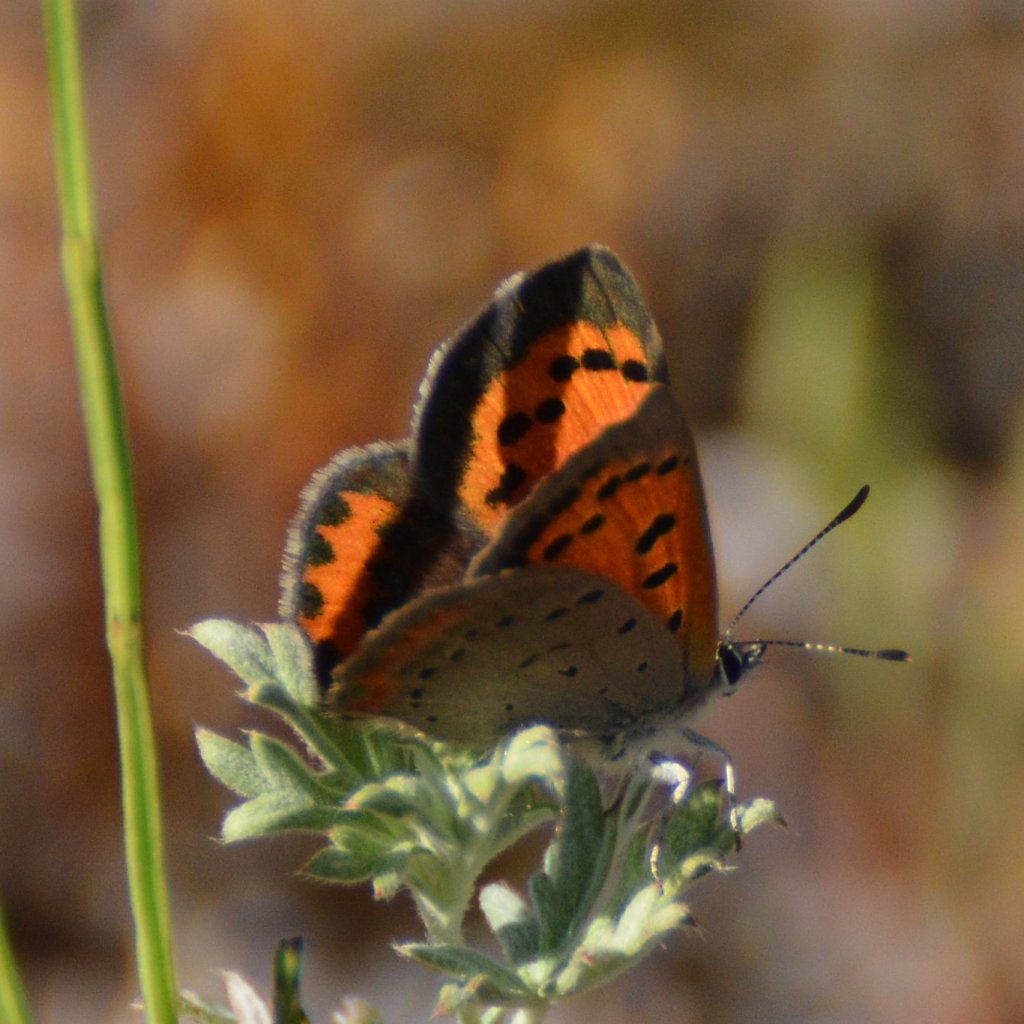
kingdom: Animalia
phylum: Arthropoda
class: Insecta
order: Lepidoptera
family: Lycaenidae
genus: Lycaena
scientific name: Lycaena phlaeas
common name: American Copper
